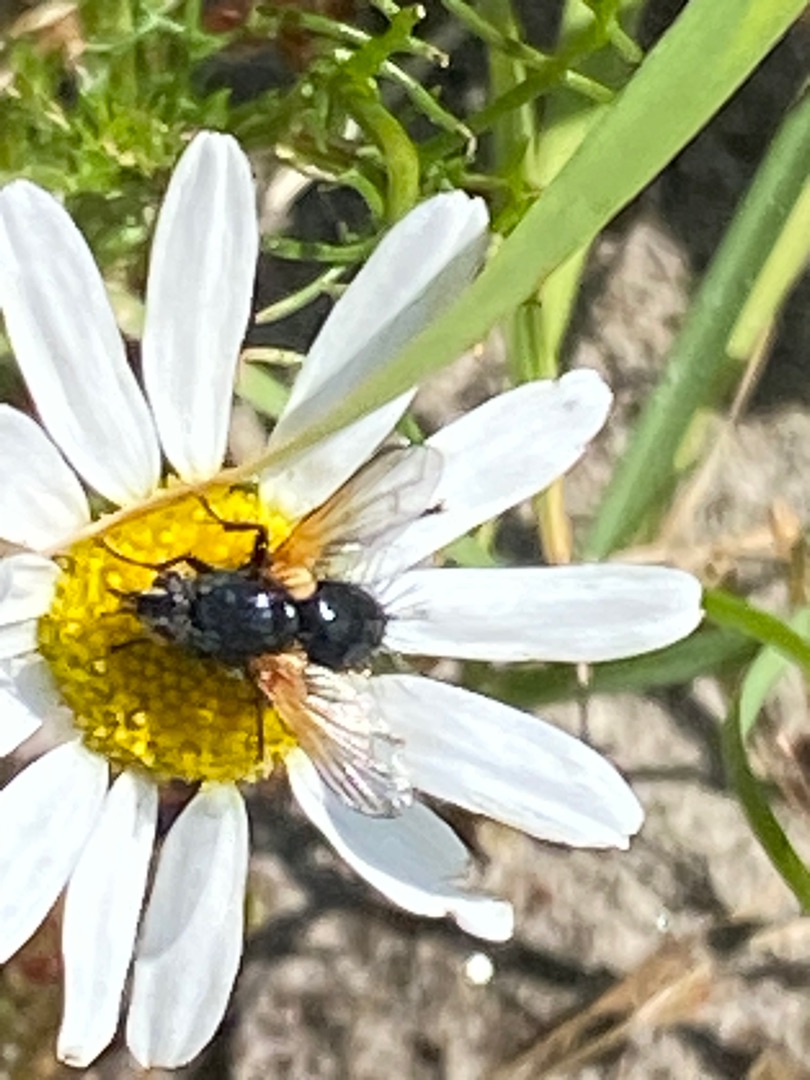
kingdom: Animalia
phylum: Arthropoda
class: Insecta
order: Diptera
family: Tachinidae
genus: Zophomyia
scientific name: Zophomyia temula
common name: Gulvinget snylteflue
